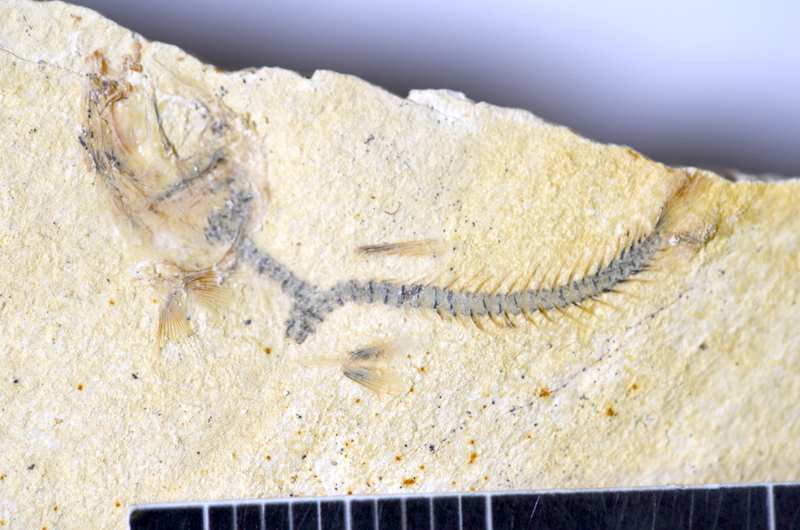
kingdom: Animalia
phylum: Chordata
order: Salmoniformes
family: Orthogonikleithridae
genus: Orthogonikleithrus
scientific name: Orthogonikleithrus hoelli
